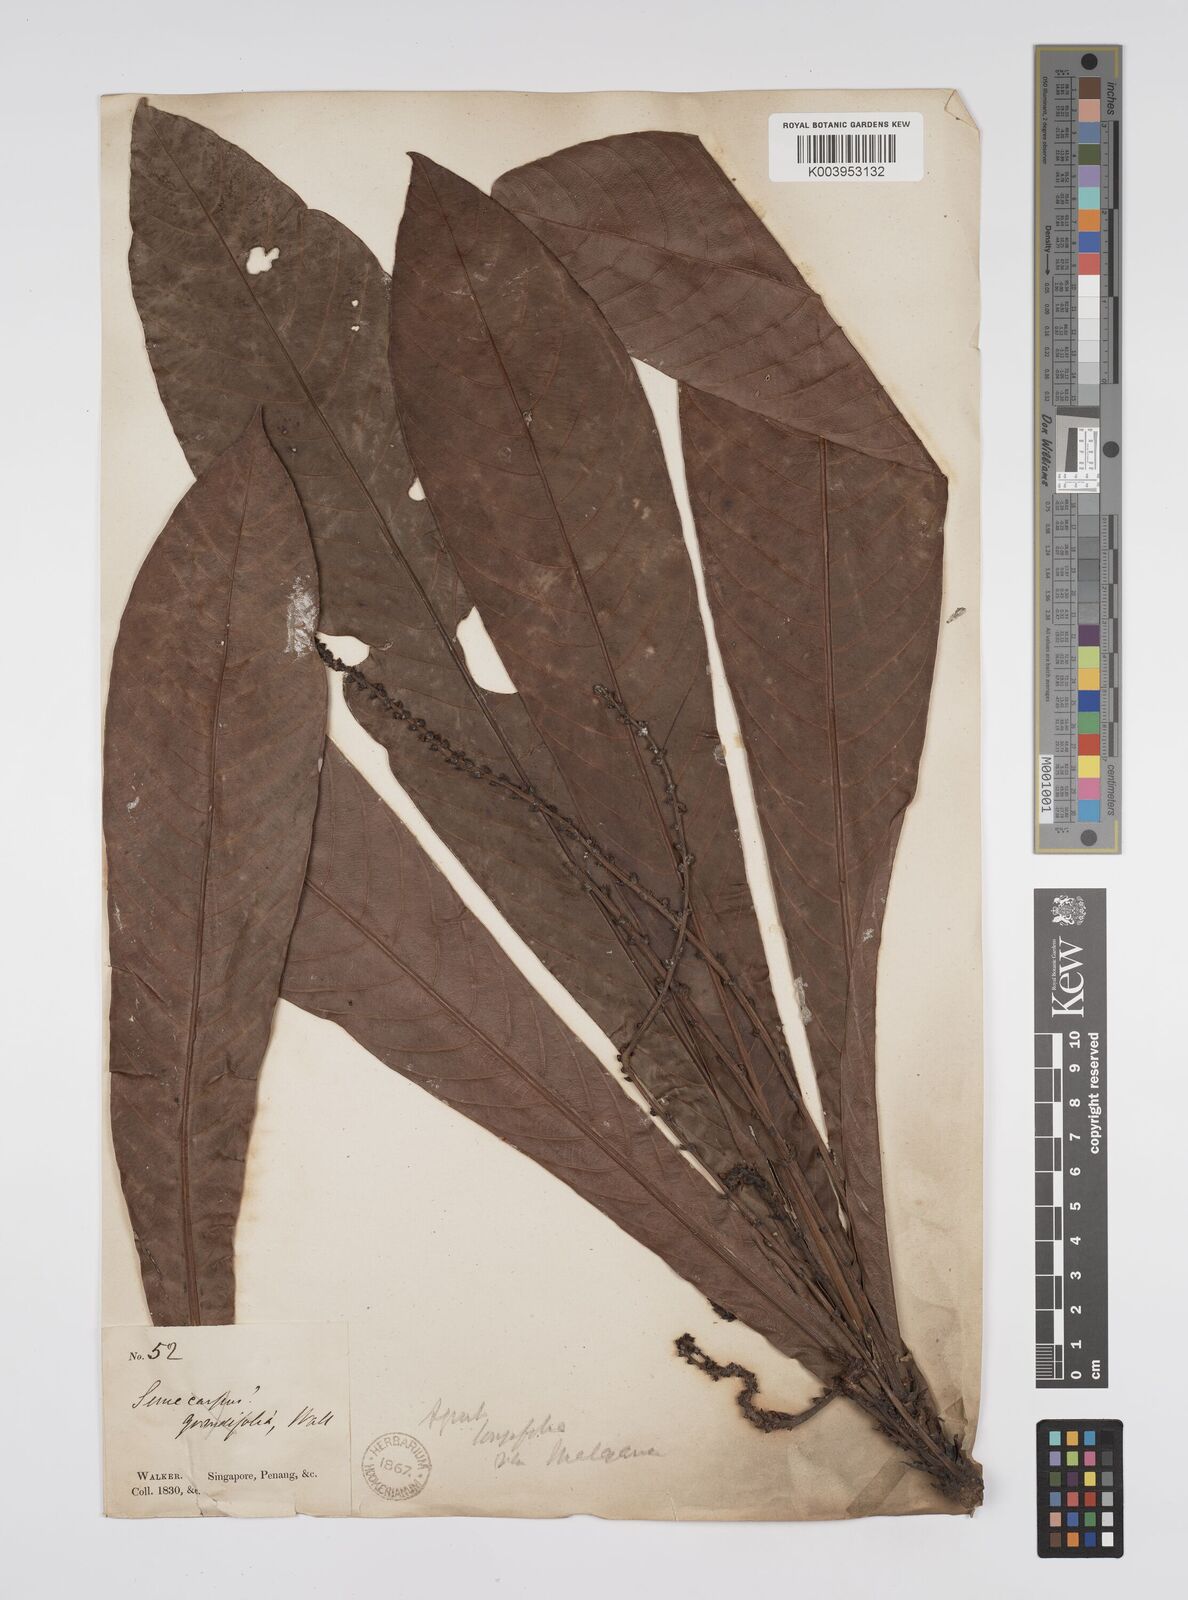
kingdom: Plantae
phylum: Tracheophyta
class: Magnoliopsida
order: Malpighiales
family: Euphorbiaceae
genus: Agrostistachys
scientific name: Agrostistachys sessilifolia
